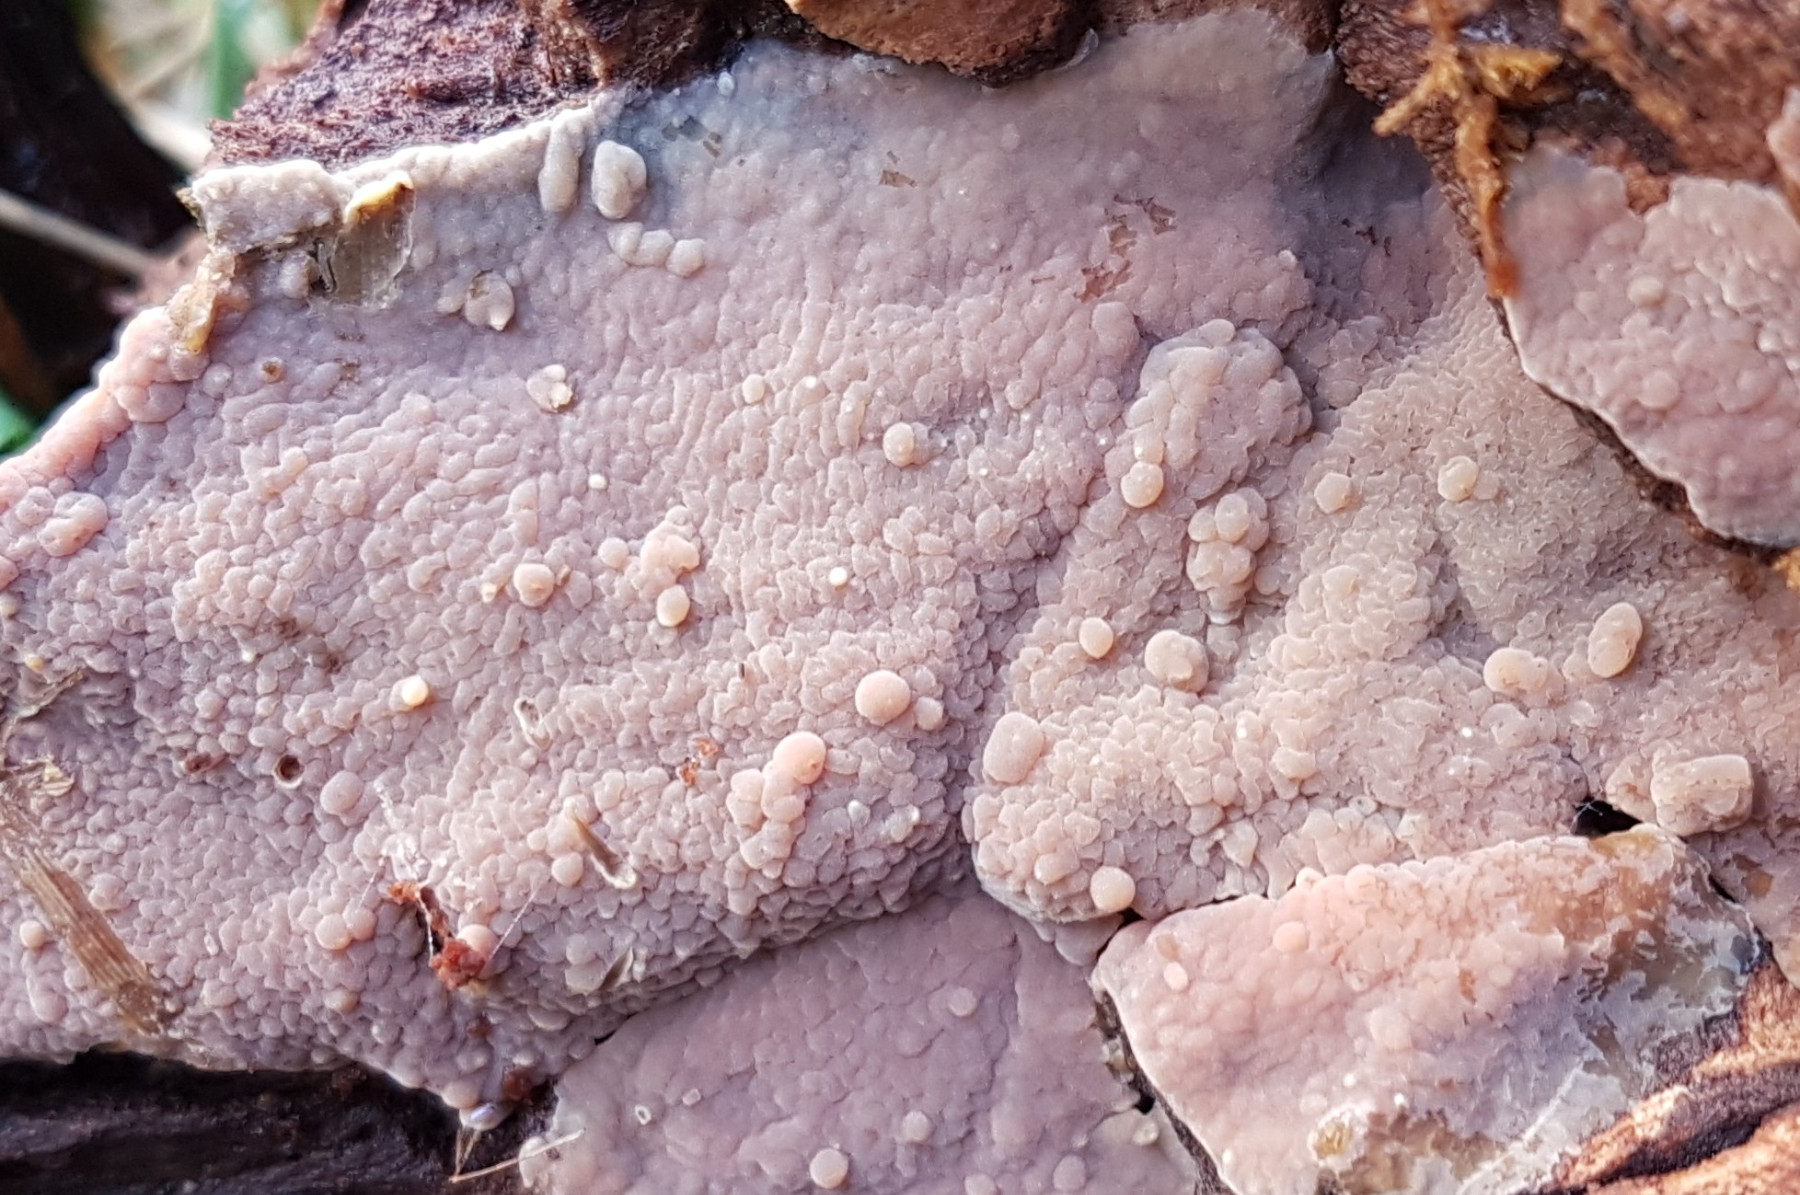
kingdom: Fungi
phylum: Basidiomycota
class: Agaricomycetes
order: Polyporales
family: Meruliaceae
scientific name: Meruliaceae
